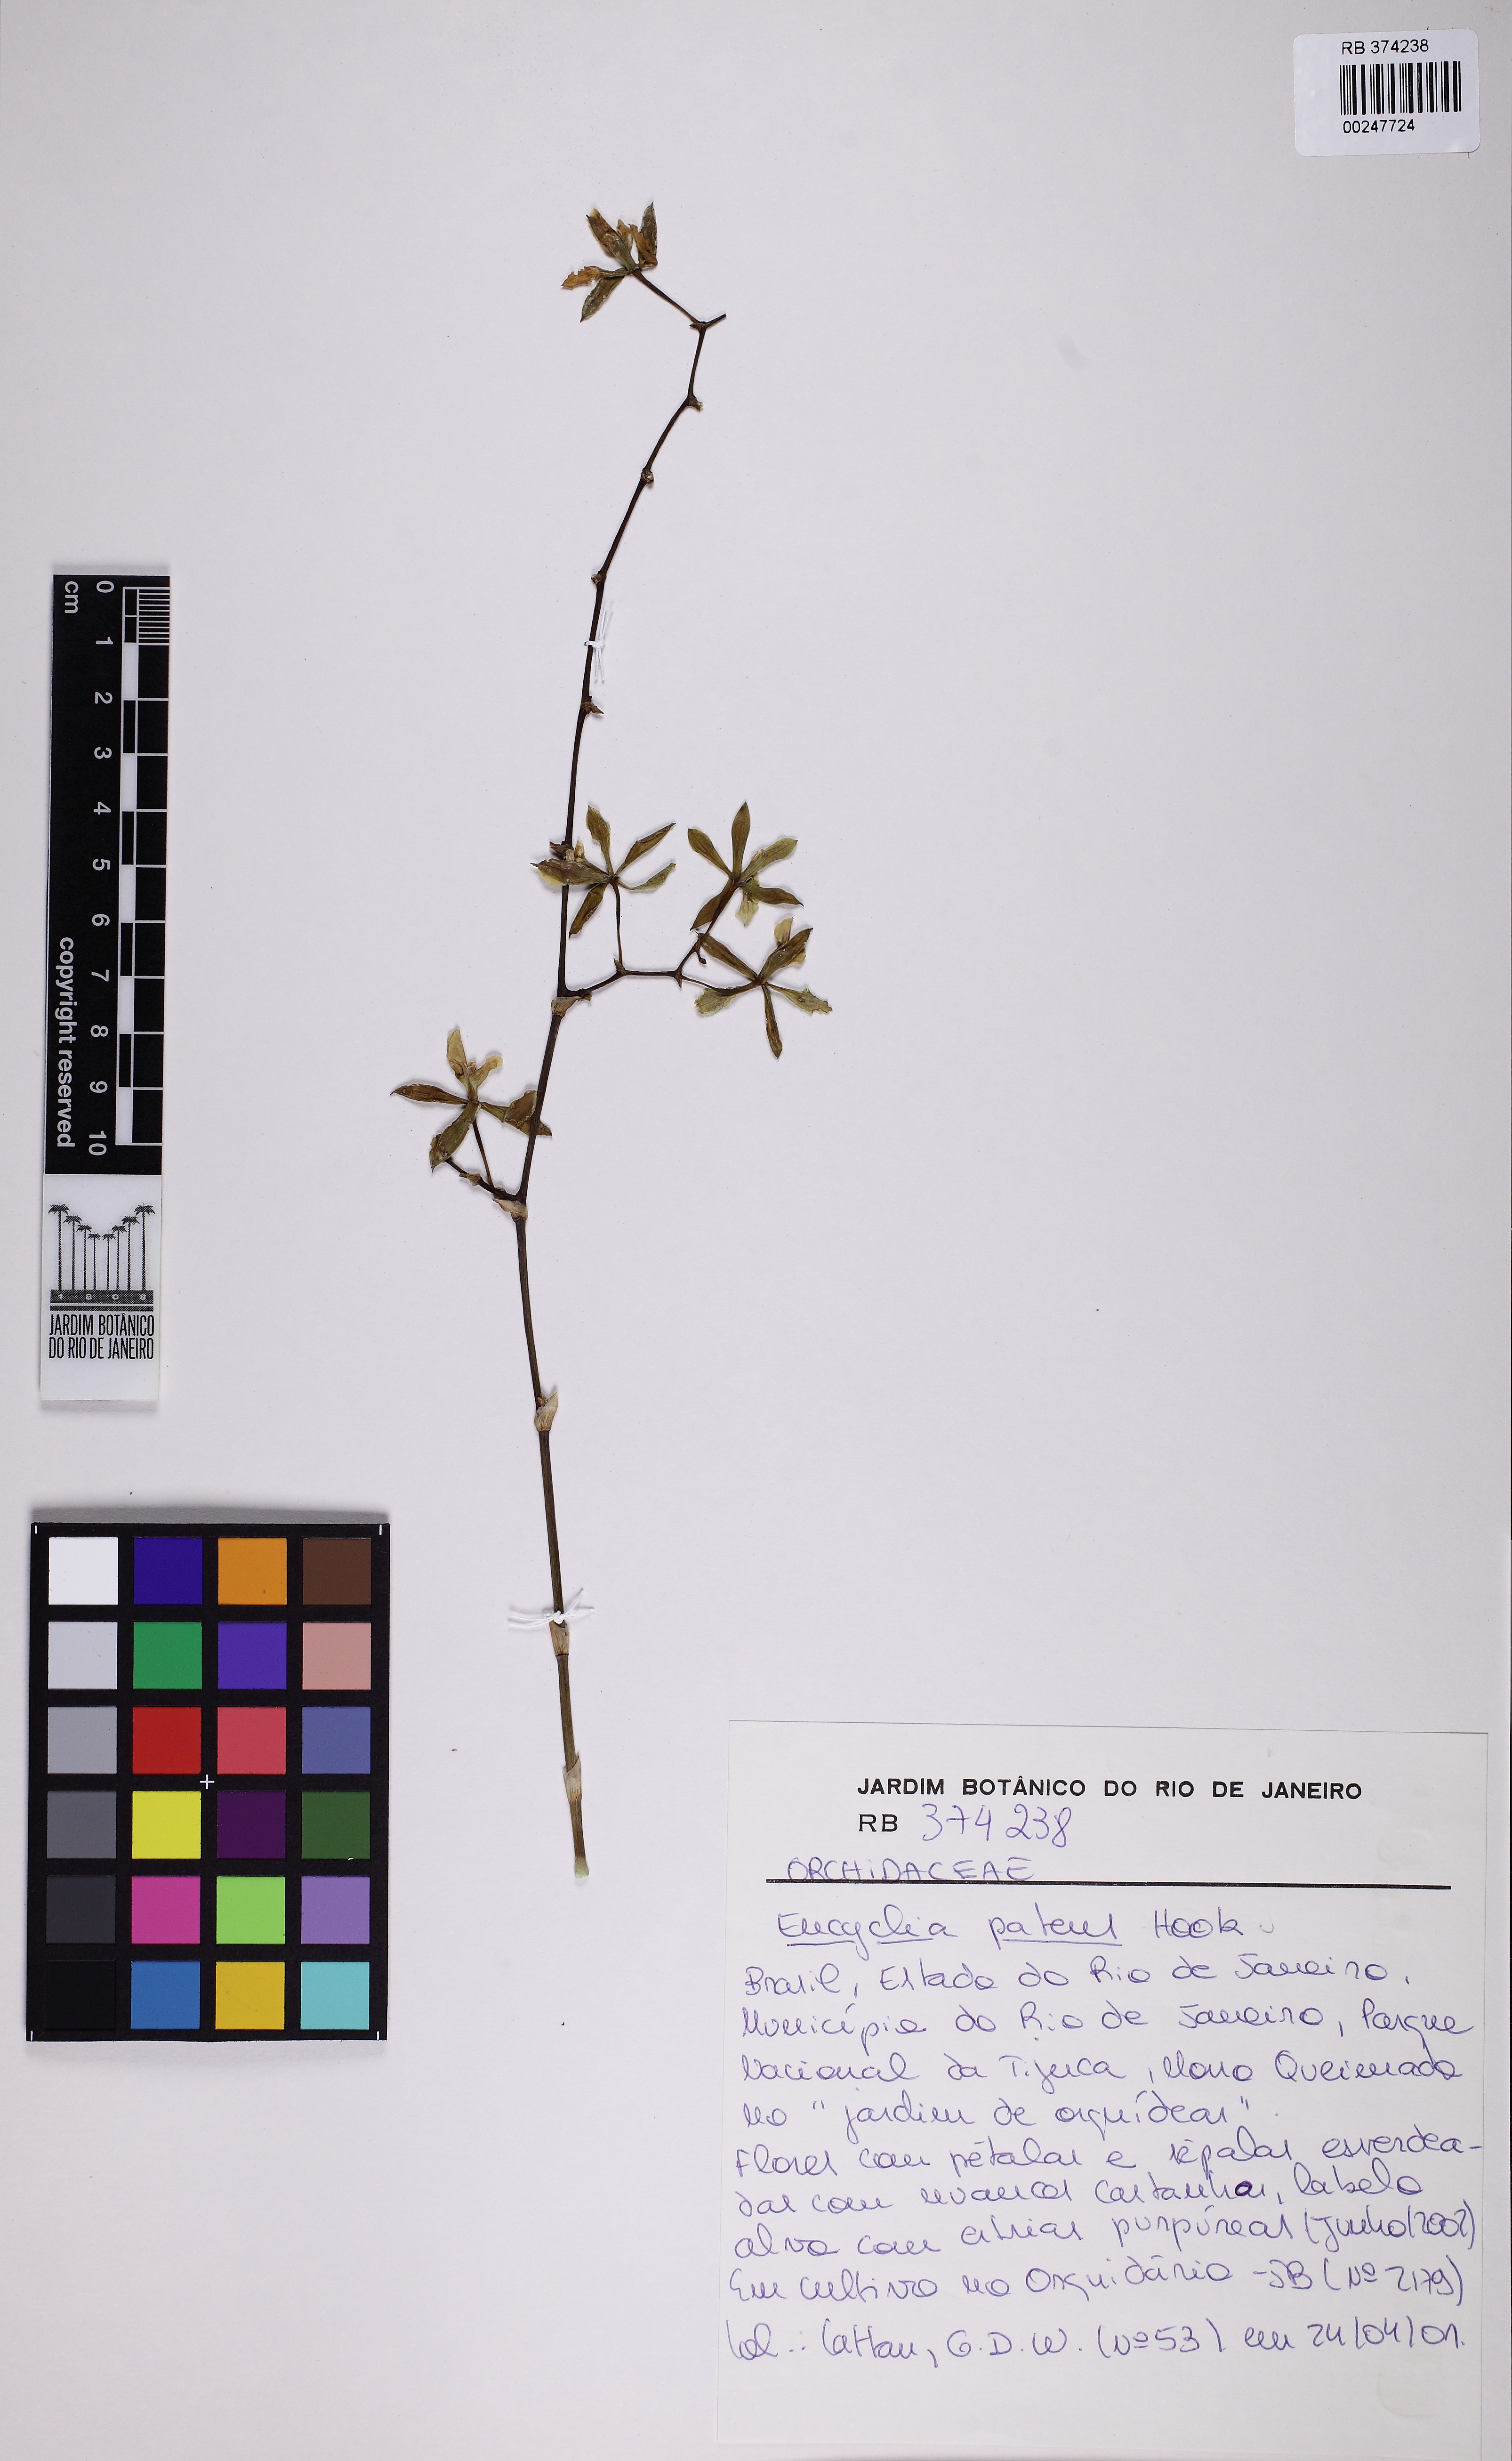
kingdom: Plantae
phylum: Tracheophyta
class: Liliopsida
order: Asparagales
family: Orchidaceae
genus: Encyclia
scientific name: Encyclia patens
